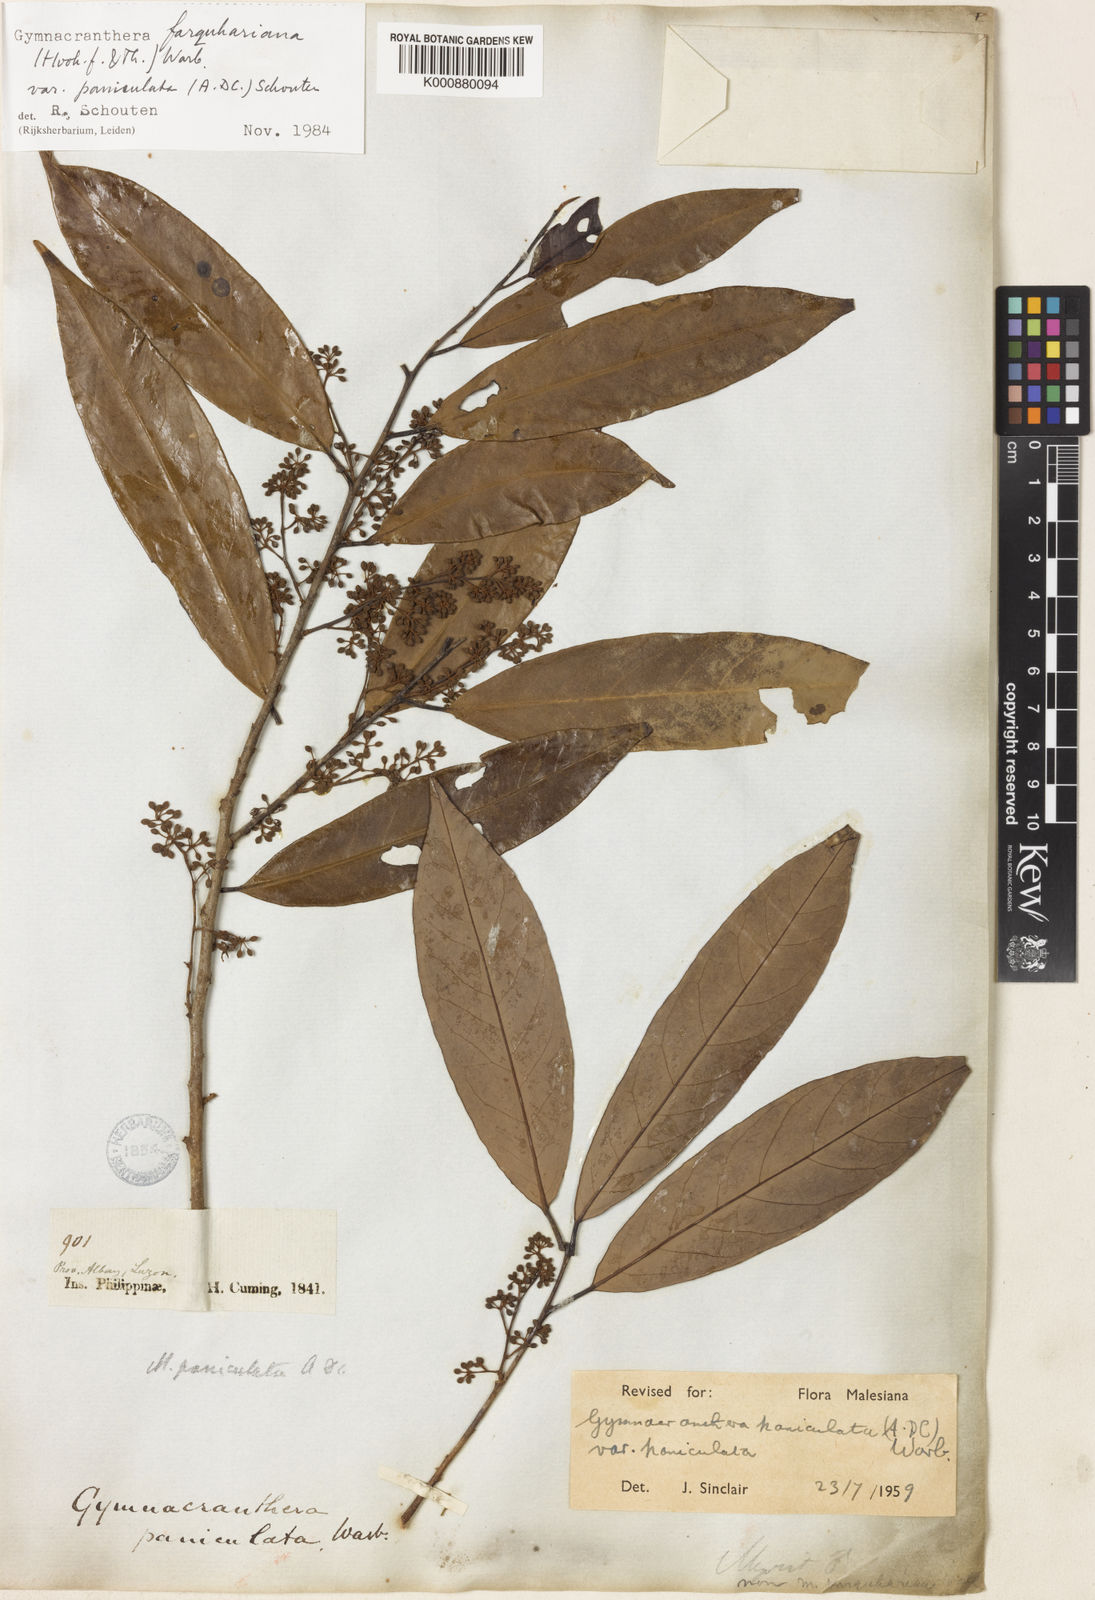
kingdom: Plantae
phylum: Tracheophyta
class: Magnoliopsida
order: Magnoliales
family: Myristicaceae
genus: Gymnacranthera
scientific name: Gymnacranthera farquhariana
